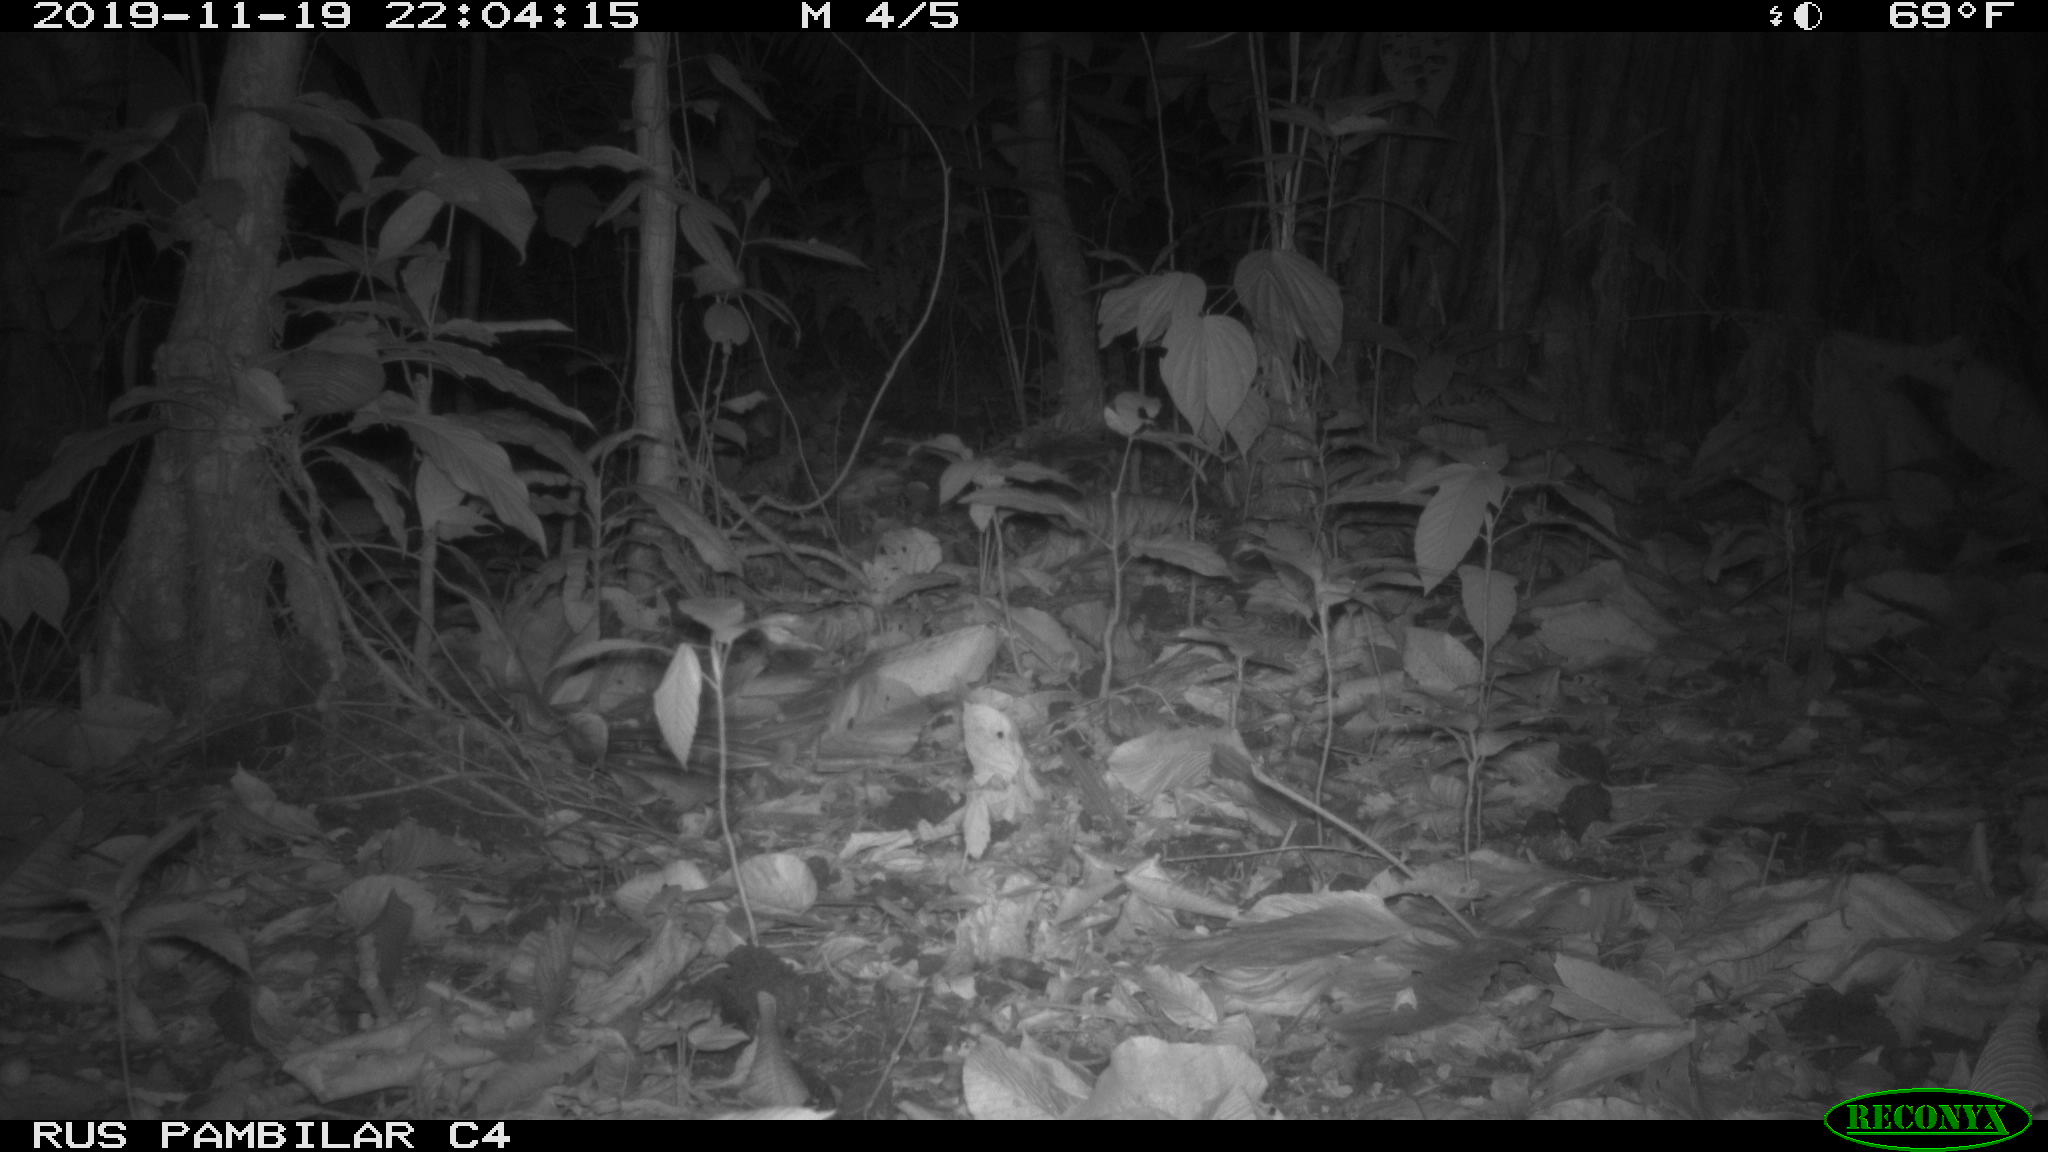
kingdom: Animalia
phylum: Chordata
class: Mammalia
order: Carnivora
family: Felidae
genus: Leopardus
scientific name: Leopardus pardalis
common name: Ocelot
